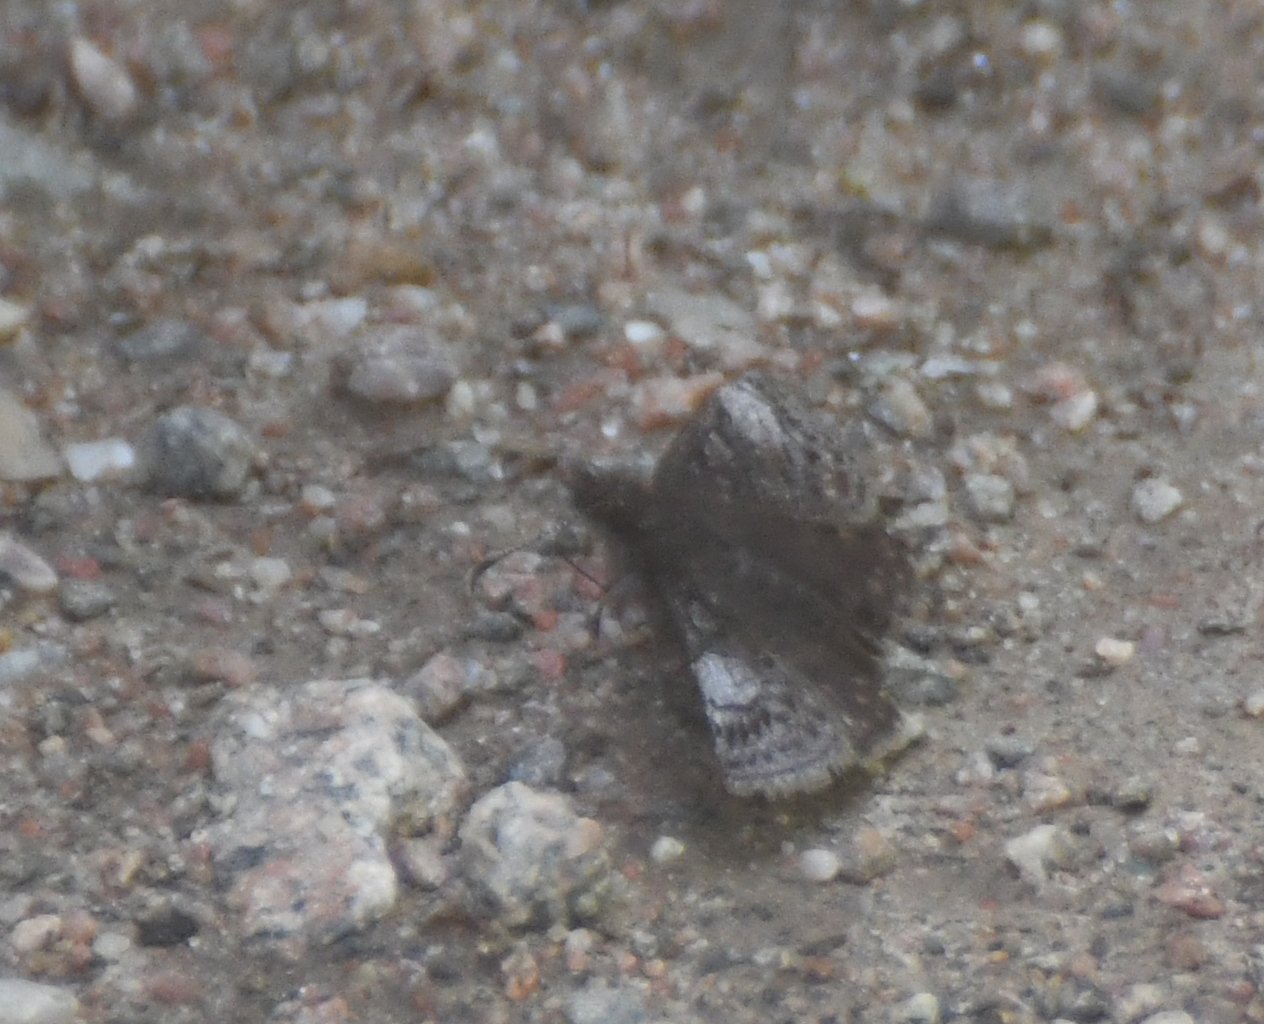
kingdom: Animalia
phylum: Arthropoda
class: Insecta
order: Lepidoptera
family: Hesperiidae
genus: Erynnis
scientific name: Erynnis icelus
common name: Dreamy Duskywing
